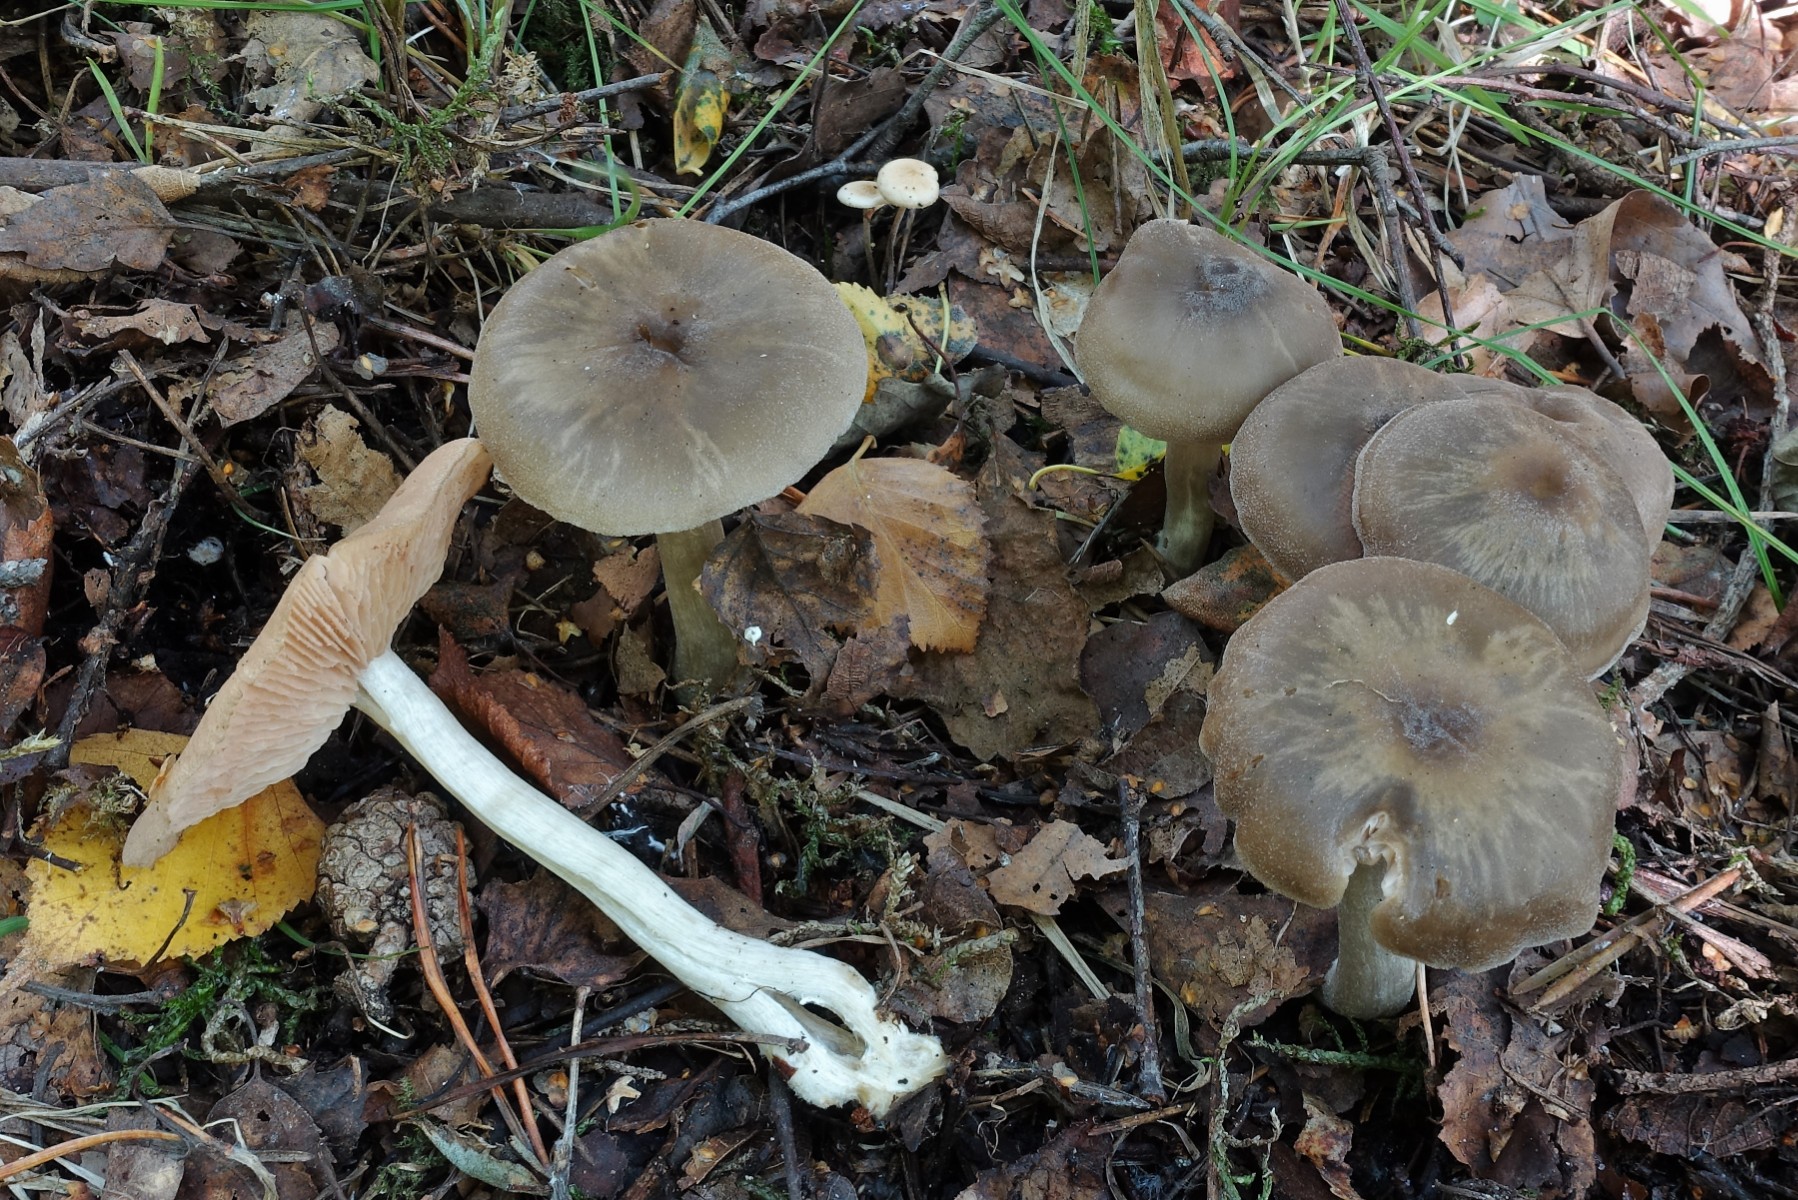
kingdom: Fungi
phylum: Basidiomycota
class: Agaricomycetes
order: Agaricales
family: Entolomataceae
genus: Entoloma
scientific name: Entoloma sericatum
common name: rank rødblad
